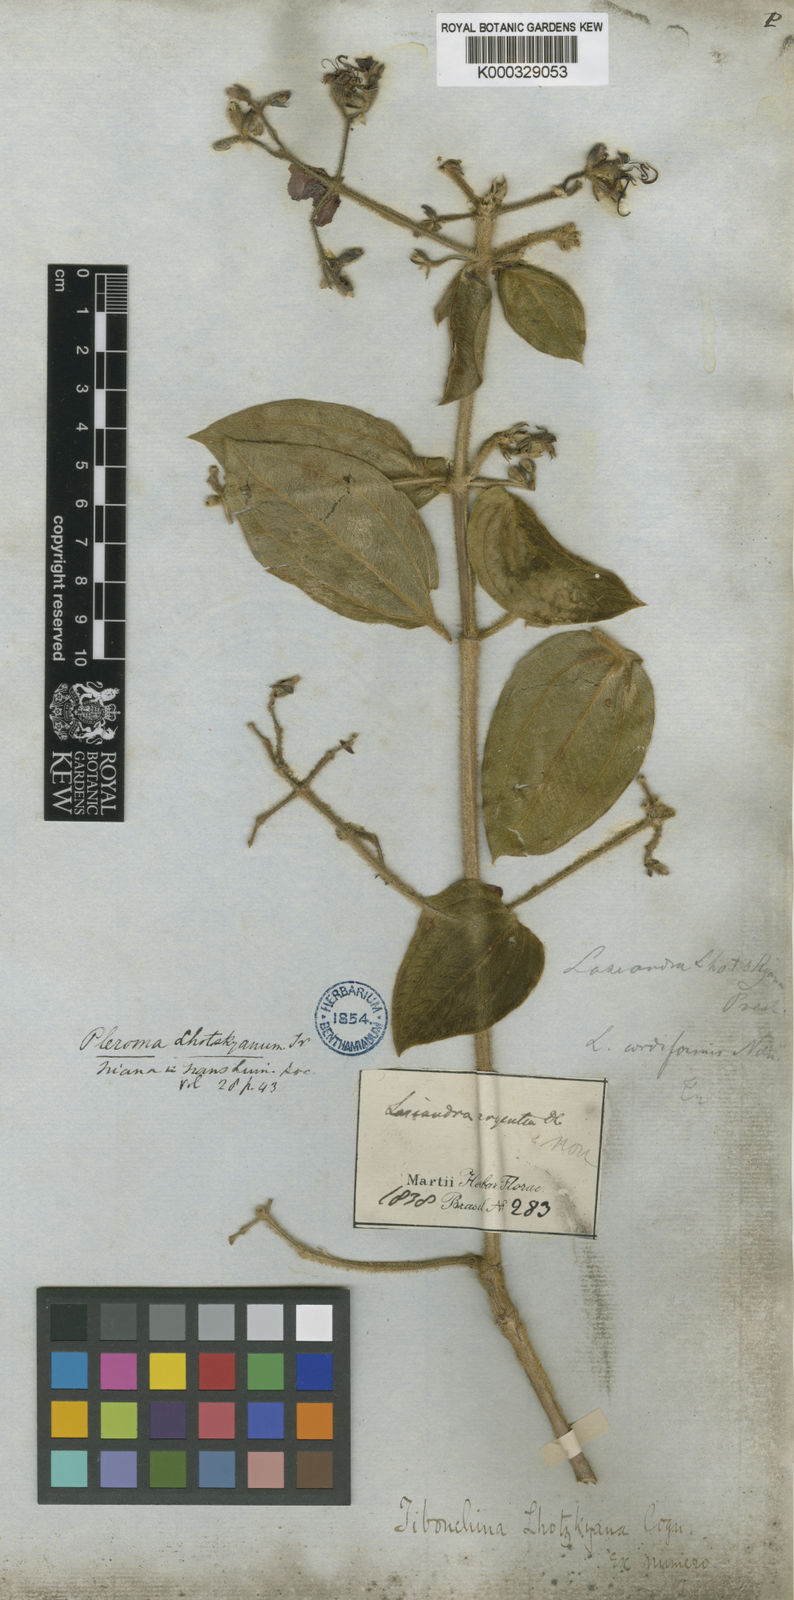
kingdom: Plantae
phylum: Tracheophyta
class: Magnoliopsida
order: Myrtales
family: Melastomataceae
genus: Chaetogastra
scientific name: Chaetogastra lhotskyana
